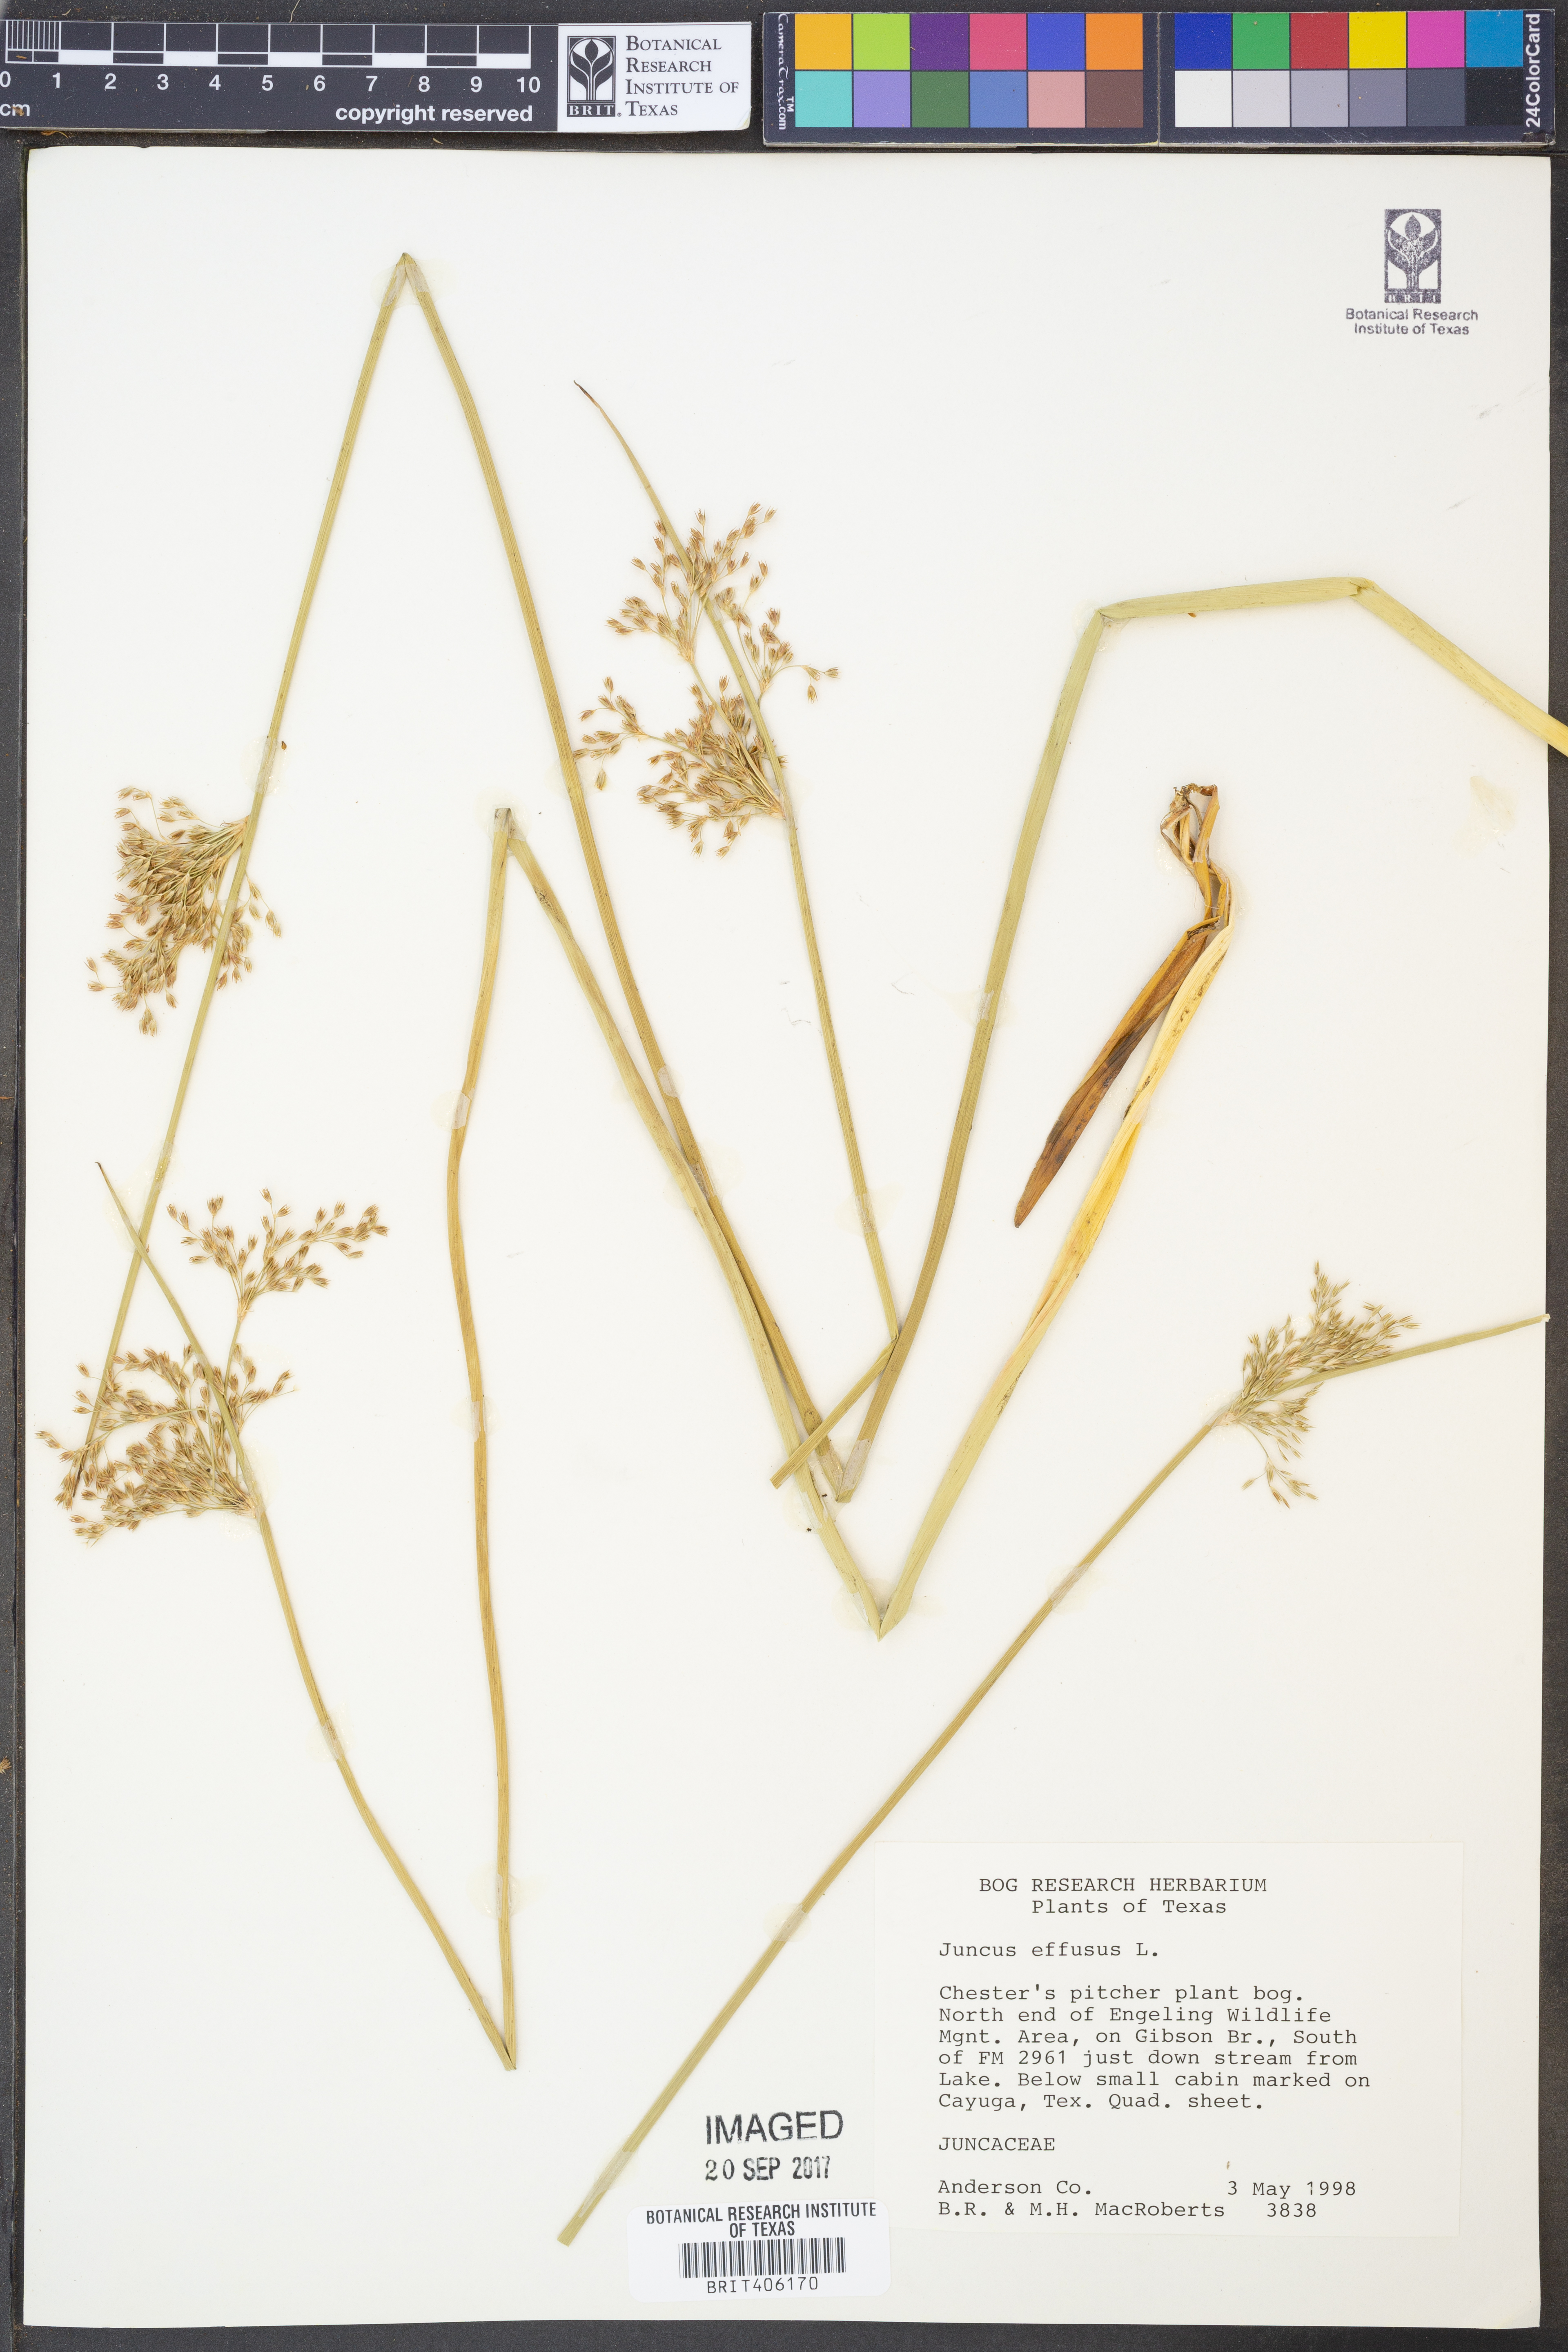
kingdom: Plantae
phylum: Tracheophyta
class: Liliopsida
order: Poales
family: Juncaceae
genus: Juncus
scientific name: Juncus effusus
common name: Soft rush
